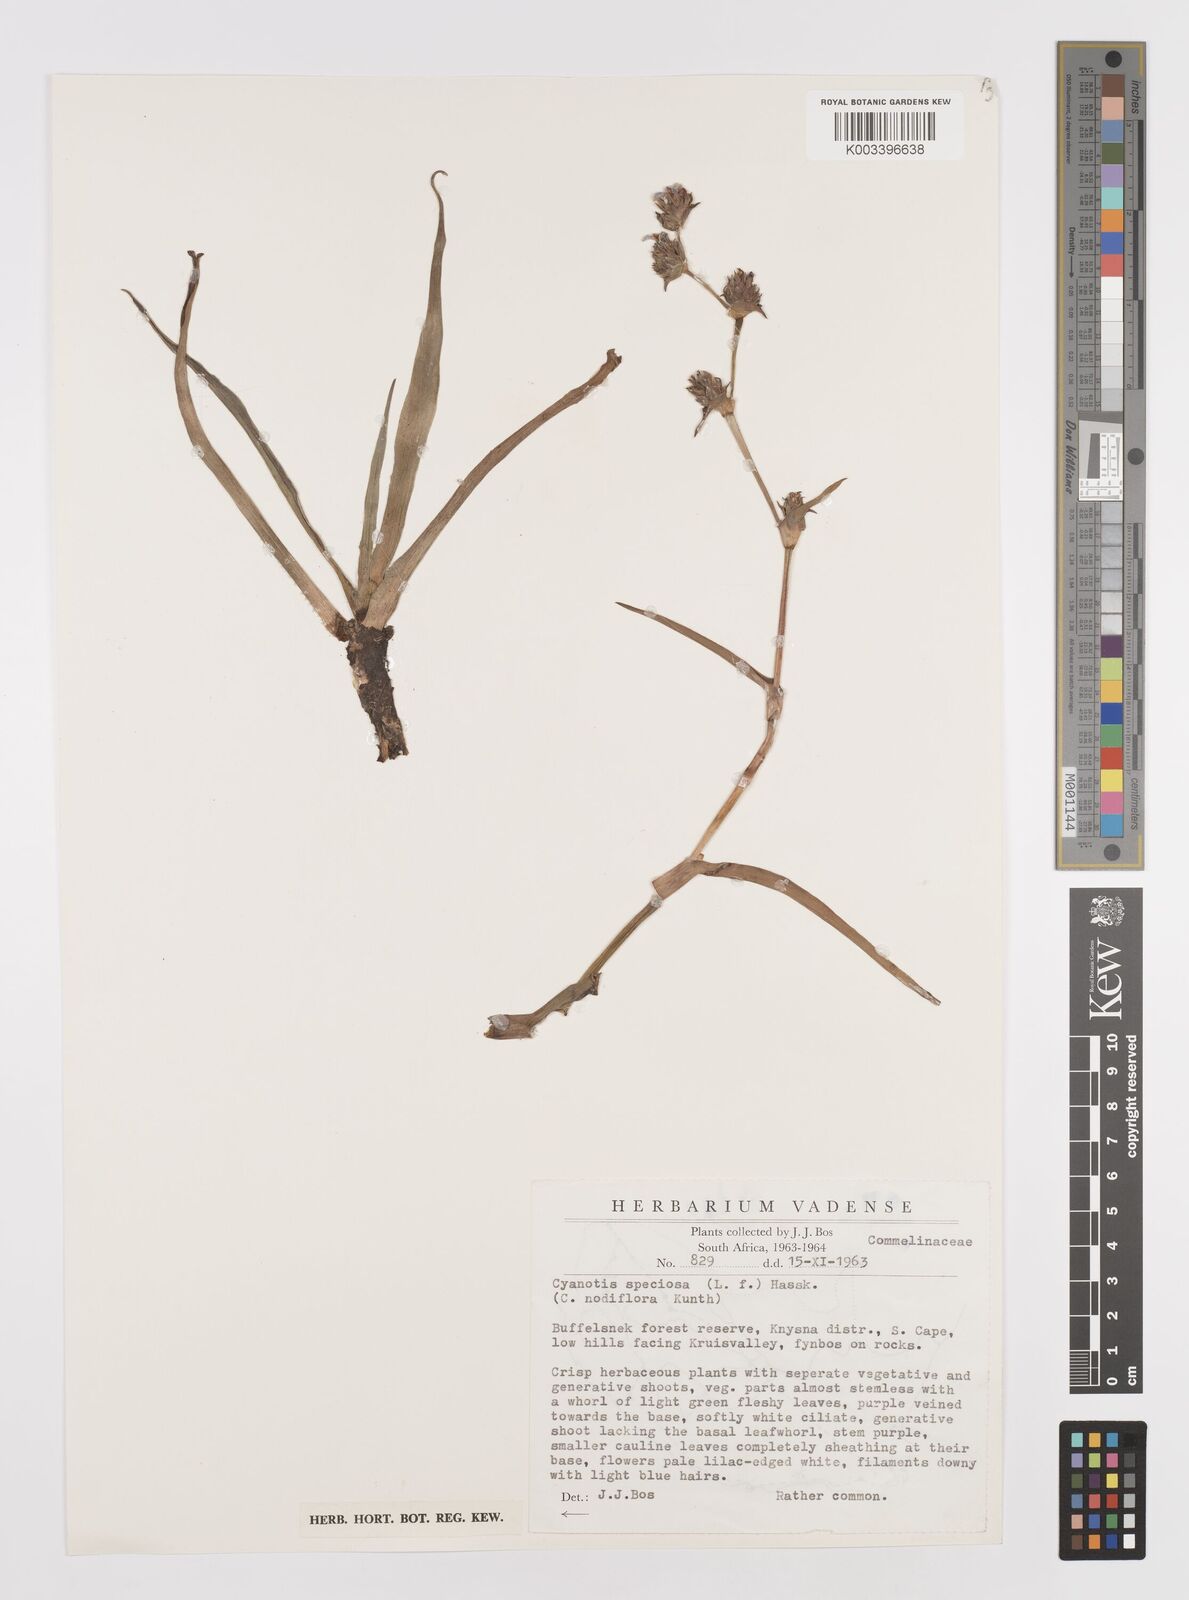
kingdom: Plantae
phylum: Tracheophyta
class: Liliopsida
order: Commelinales
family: Commelinaceae
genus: Cyanotis
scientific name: Cyanotis speciosa
